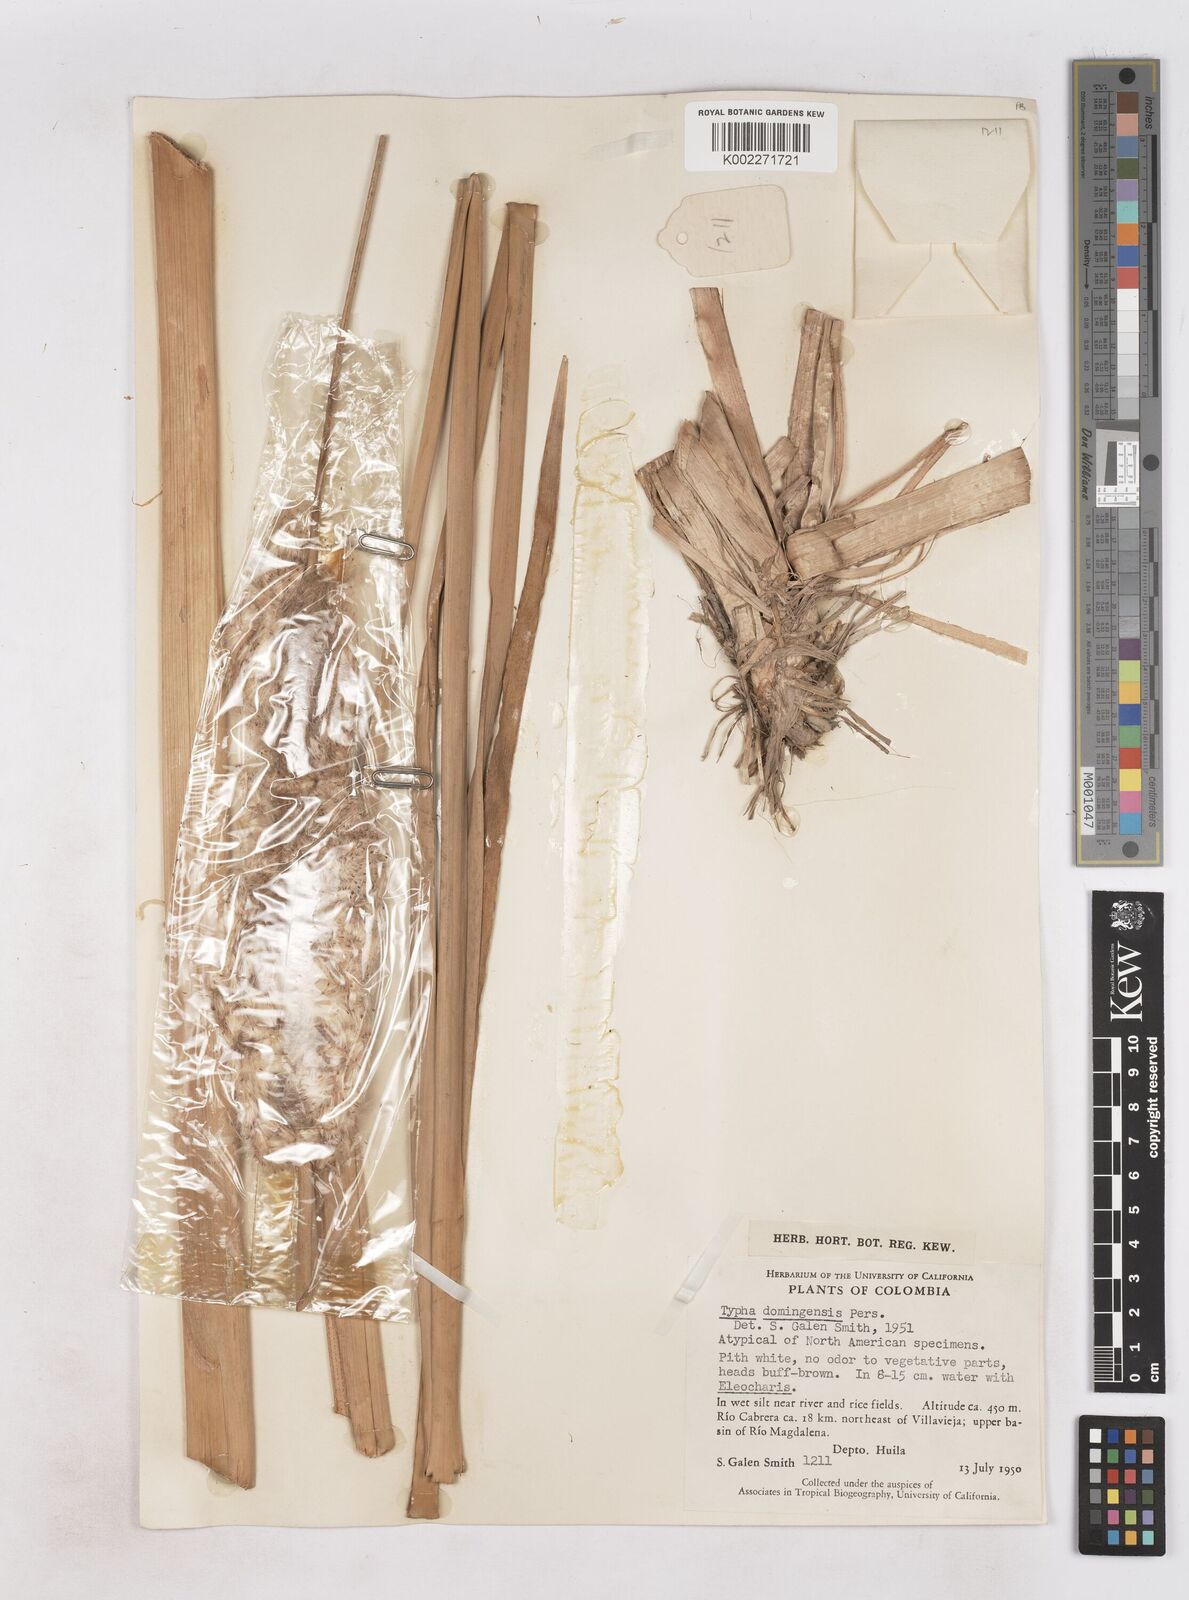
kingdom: Plantae
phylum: Tracheophyta
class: Liliopsida
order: Poales
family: Typhaceae
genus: Typha
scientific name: Typha domingensis
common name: Southern cattail
